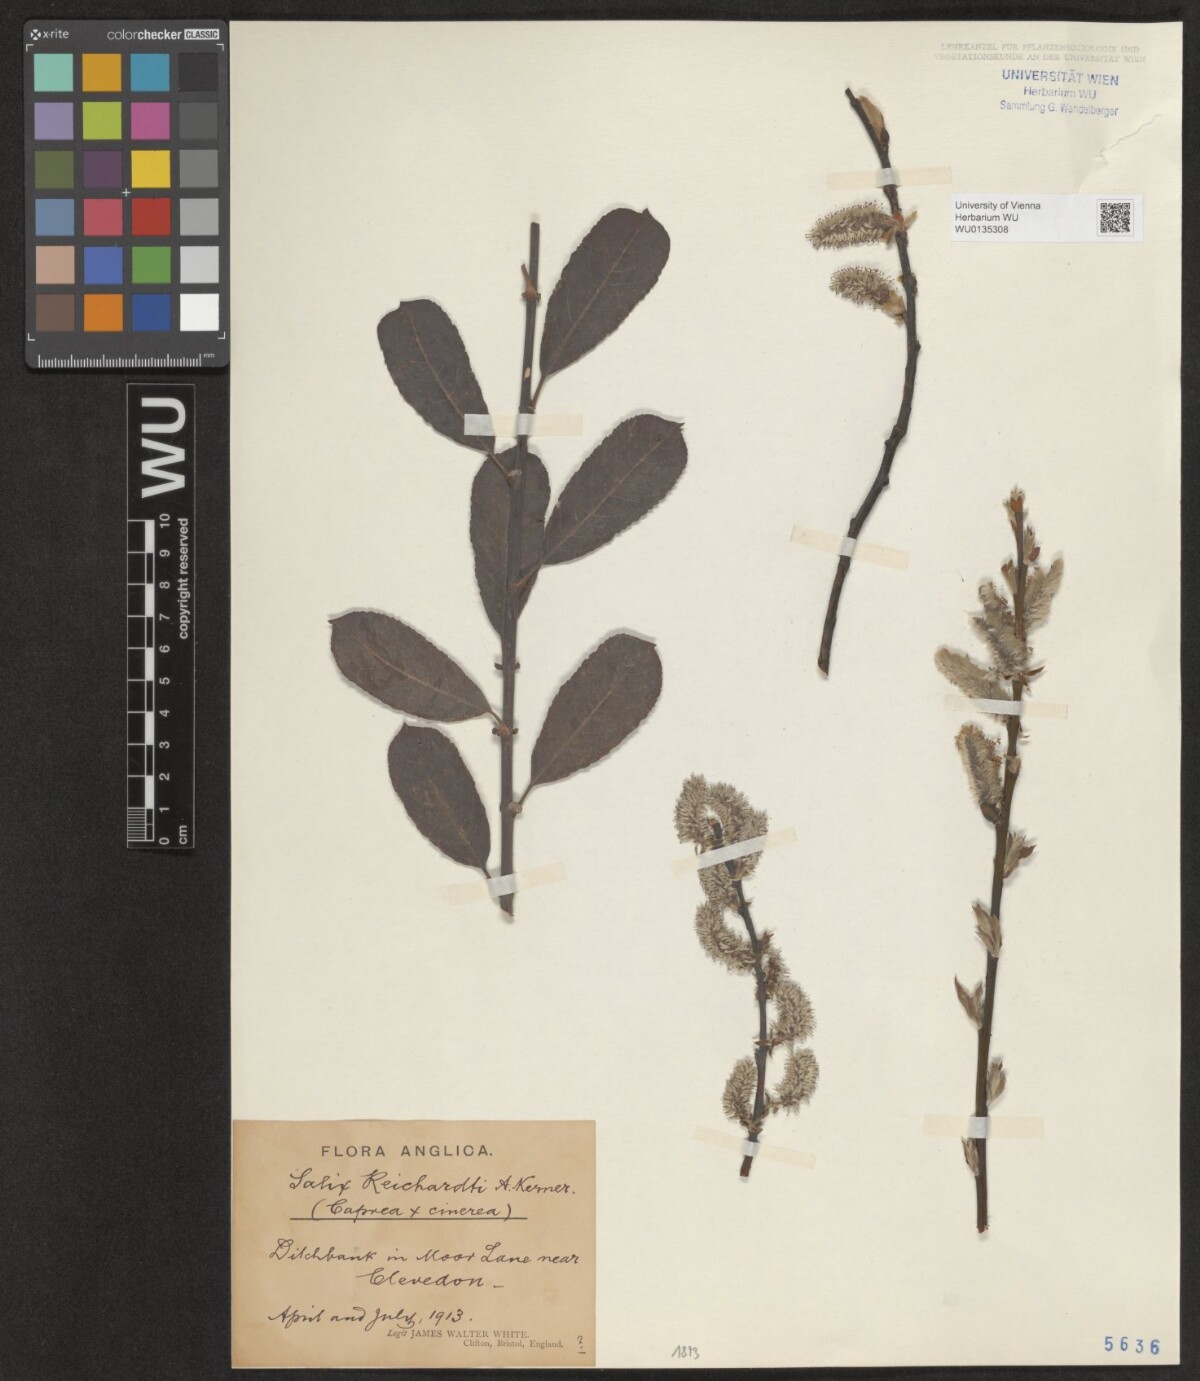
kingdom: Plantae
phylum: Tracheophyta
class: Magnoliopsida
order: Malpighiales
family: Salicaceae
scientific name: Salicaceae
